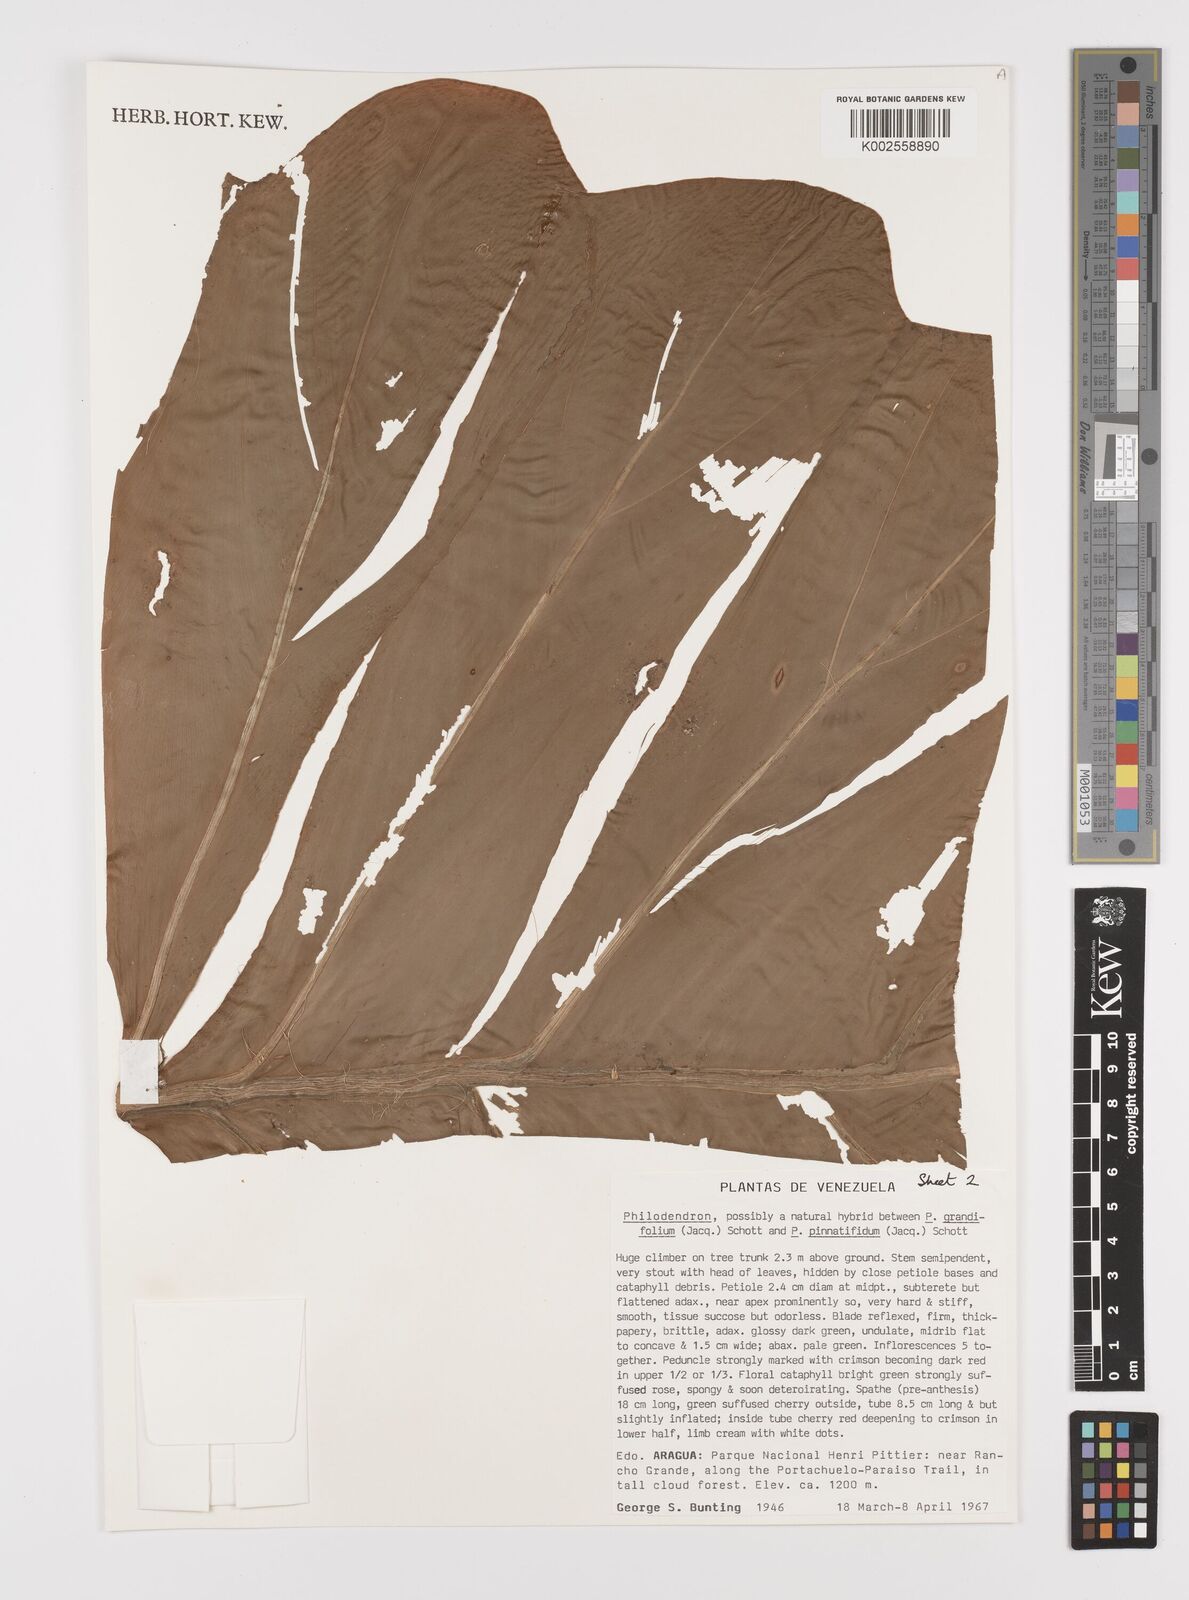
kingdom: Plantae
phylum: Tracheophyta
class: Liliopsida
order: Alismatales
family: Araceae
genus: Philodendron
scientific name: Philodendron grandifolium
